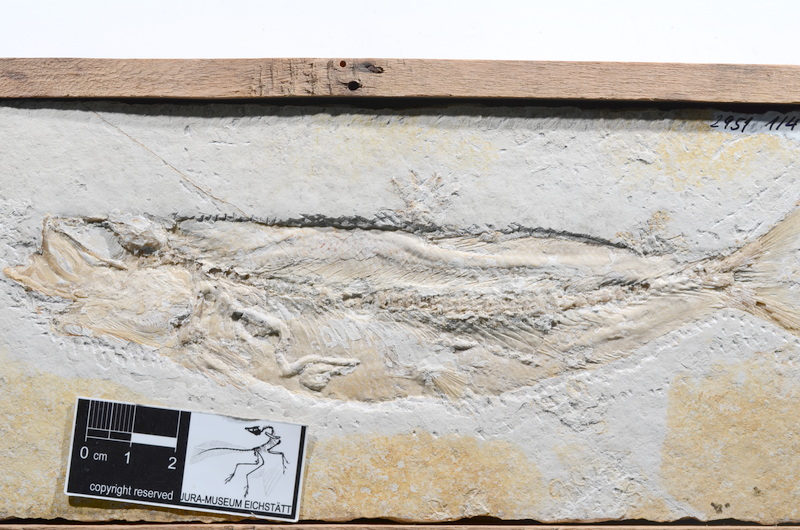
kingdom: Animalia
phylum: Chordata
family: Ascalaboidae
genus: Tharsis
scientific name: Tharsis dubius
